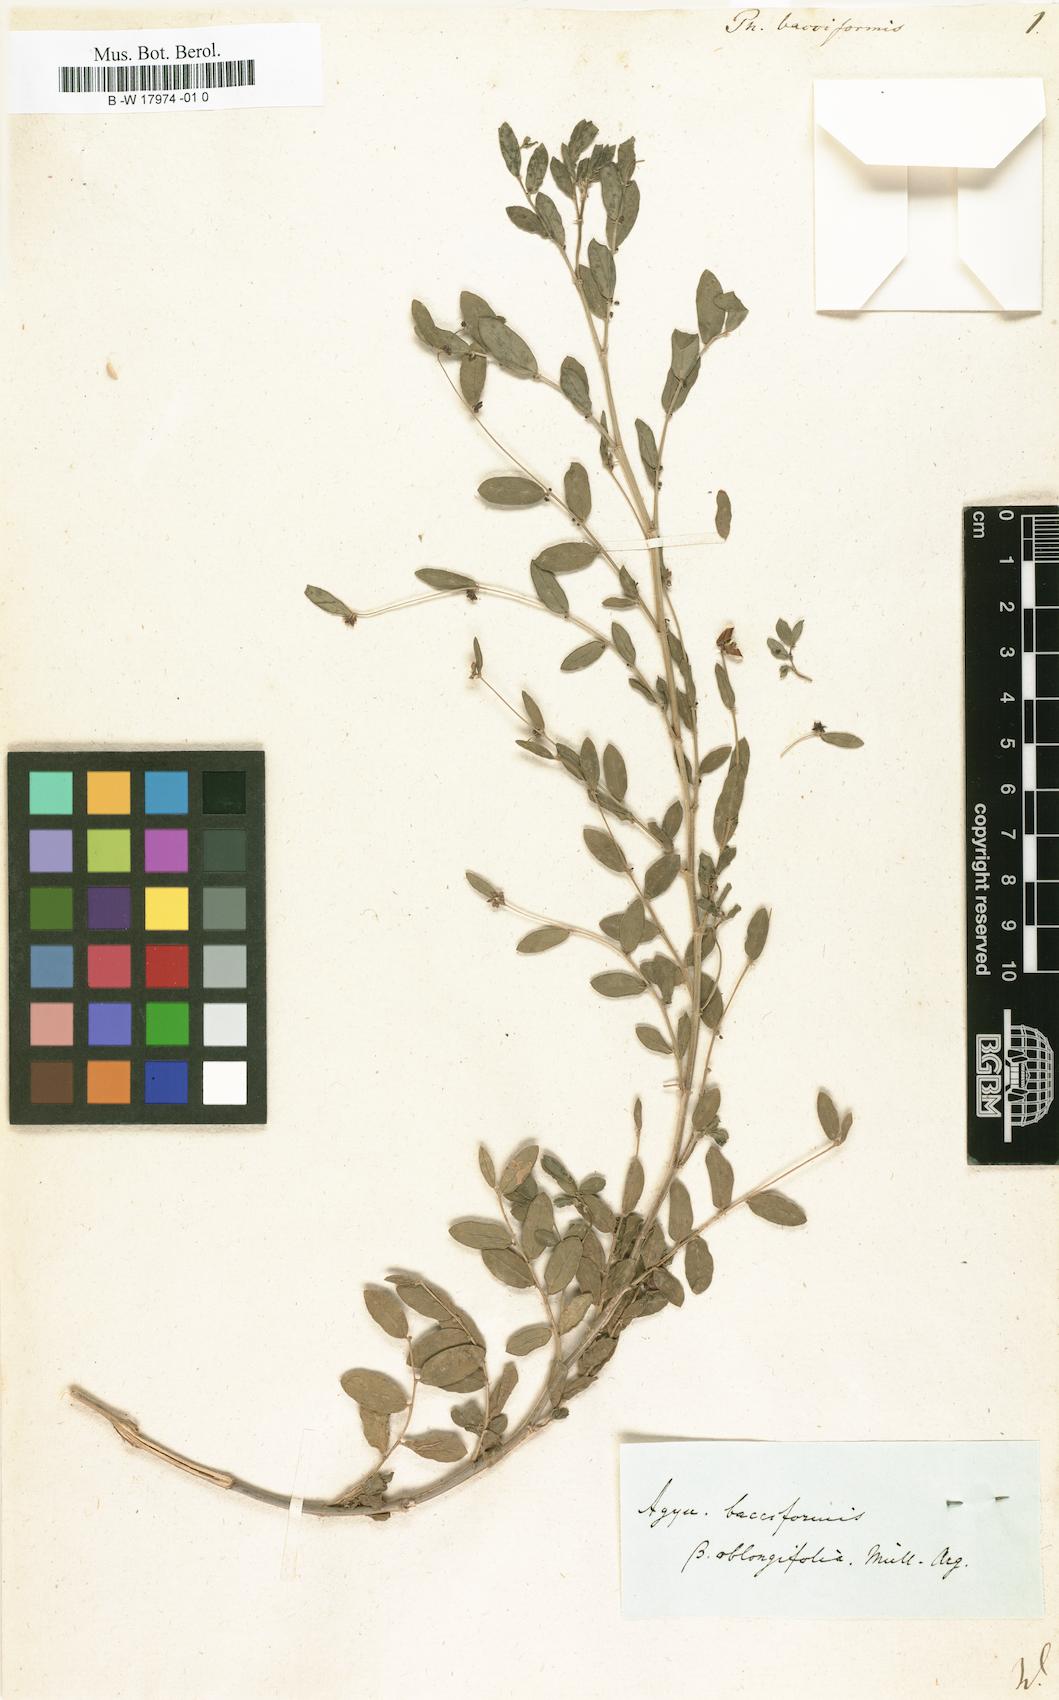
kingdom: Plantae
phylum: Tracheophyta
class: Magnoliopsida
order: Malpighiales
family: Phyllanthaceae
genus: Synostemon
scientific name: Synostemon bacciformis
